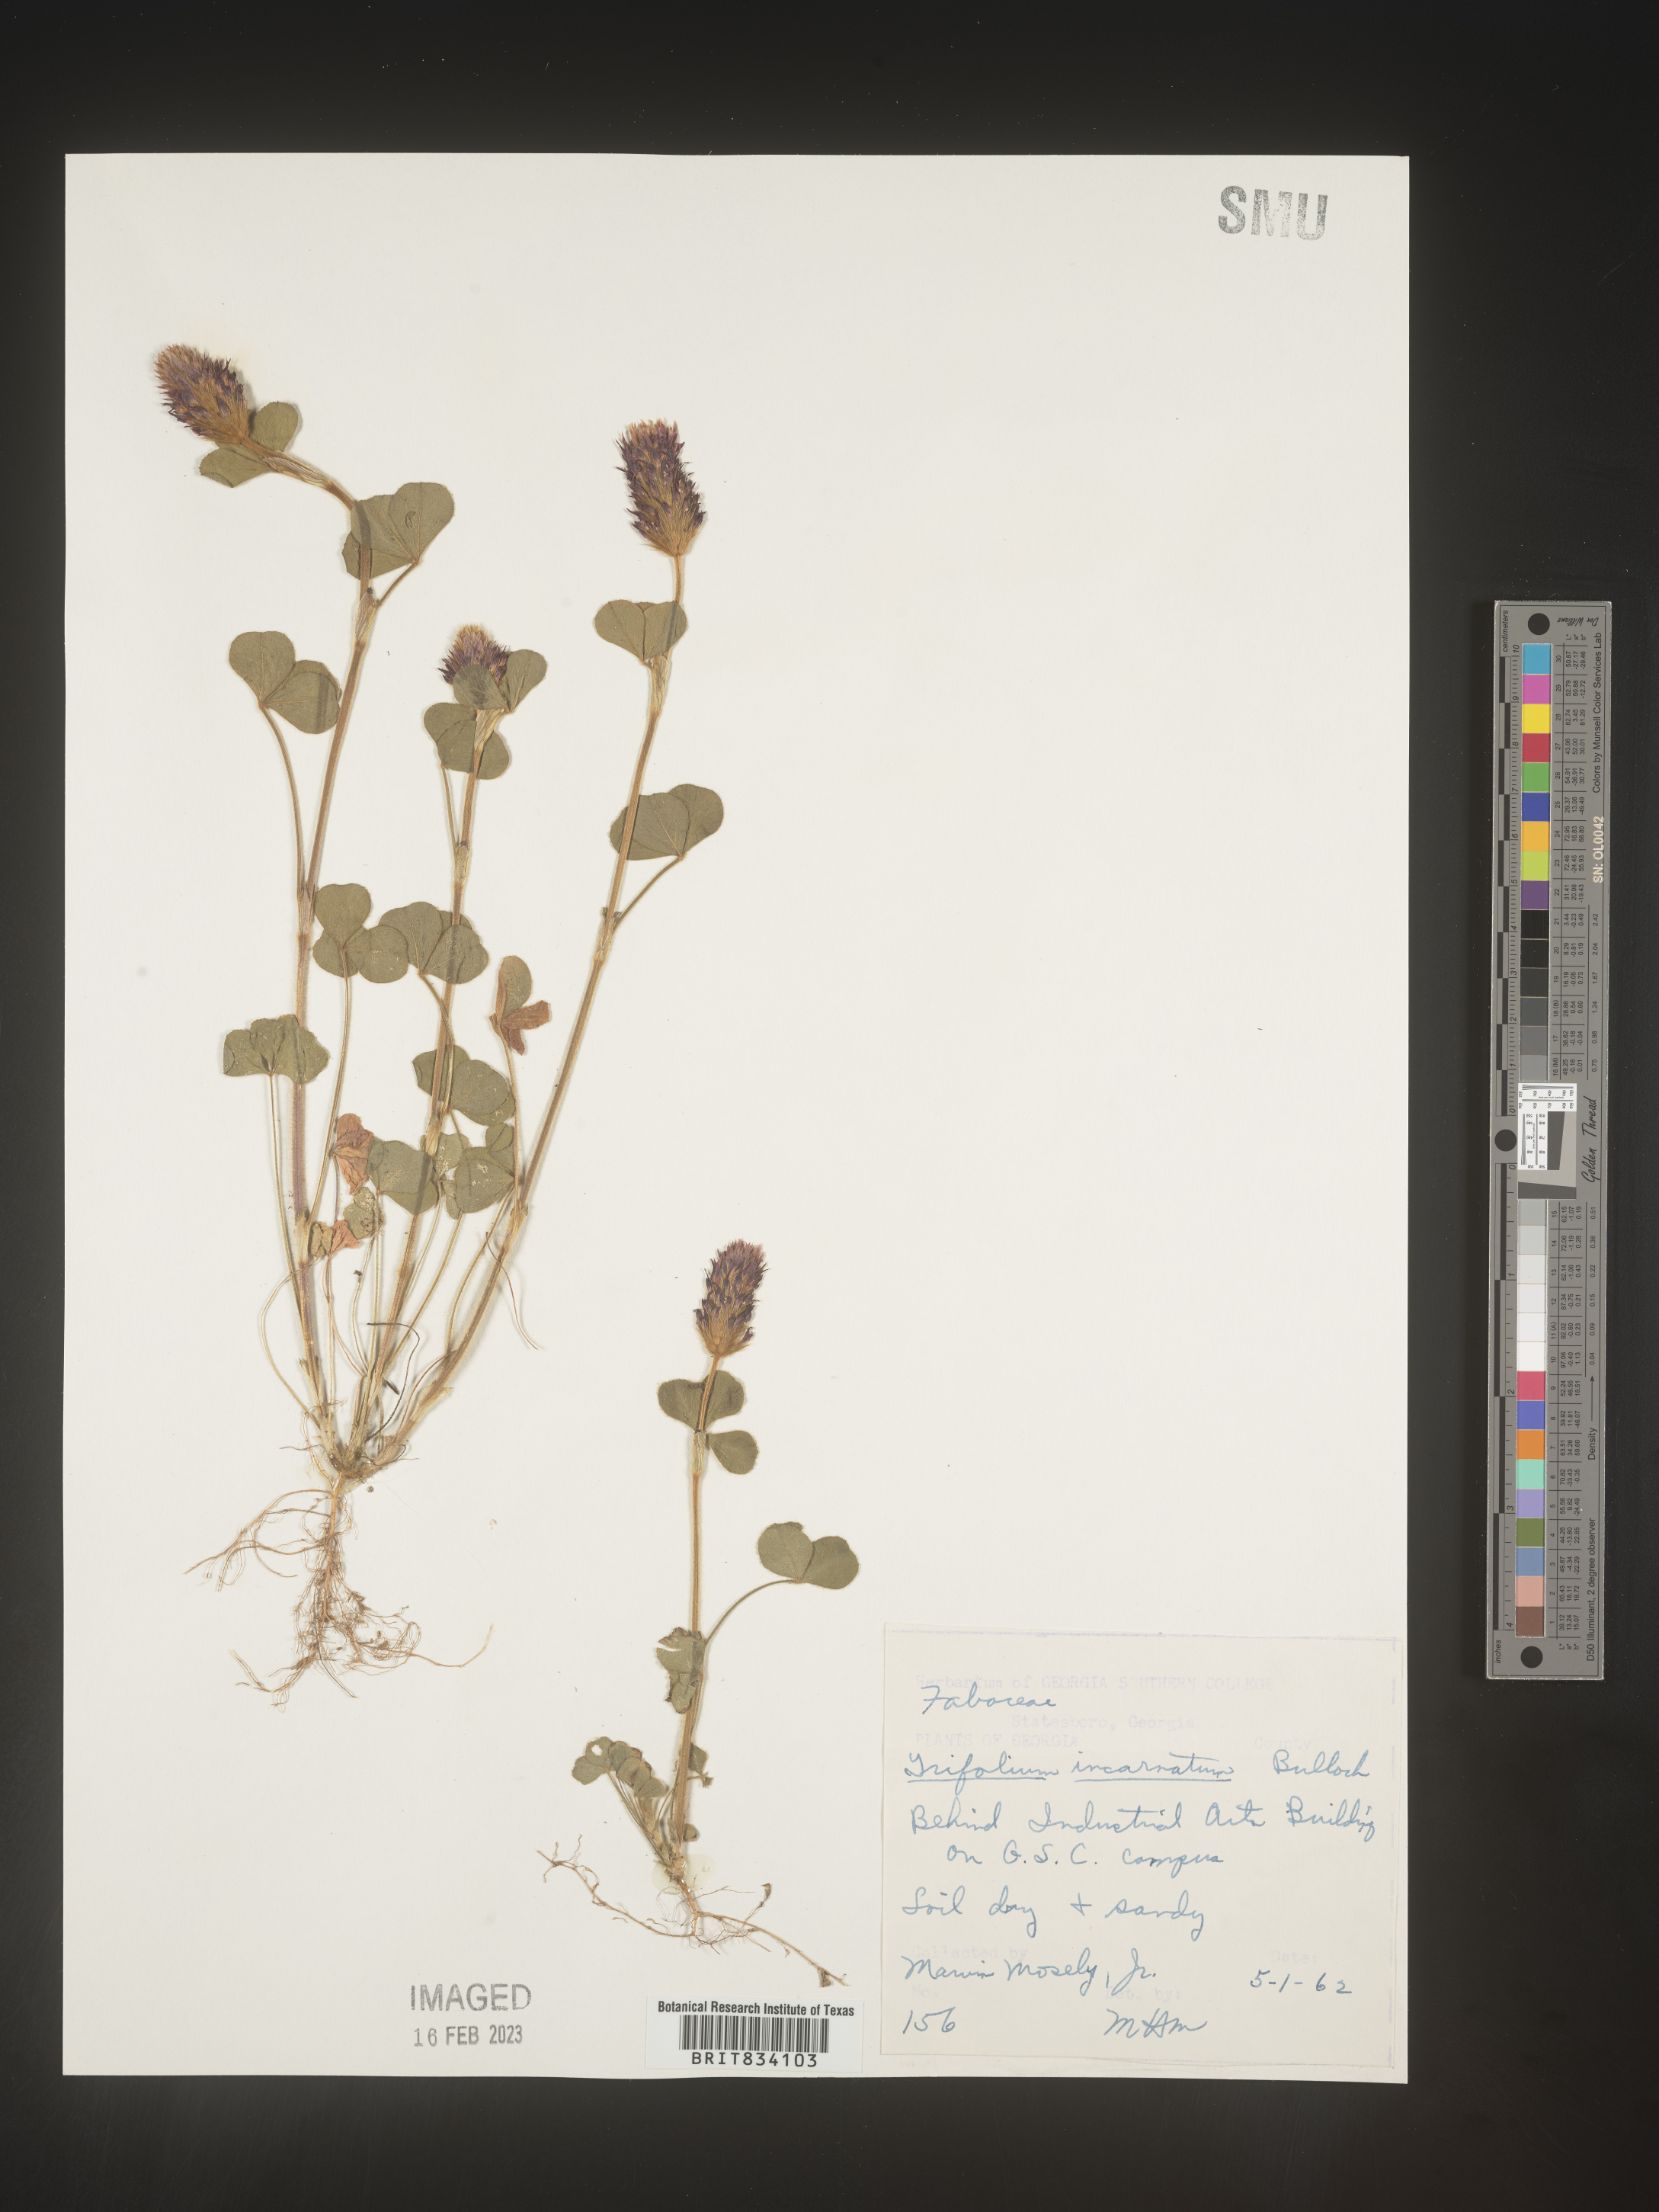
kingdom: Plantae
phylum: Tracheophyta
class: Magnoliopsida
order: Fabales
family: Fabaceae
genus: Trifolium
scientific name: Trifolium incarnatum
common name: Crimson clover
